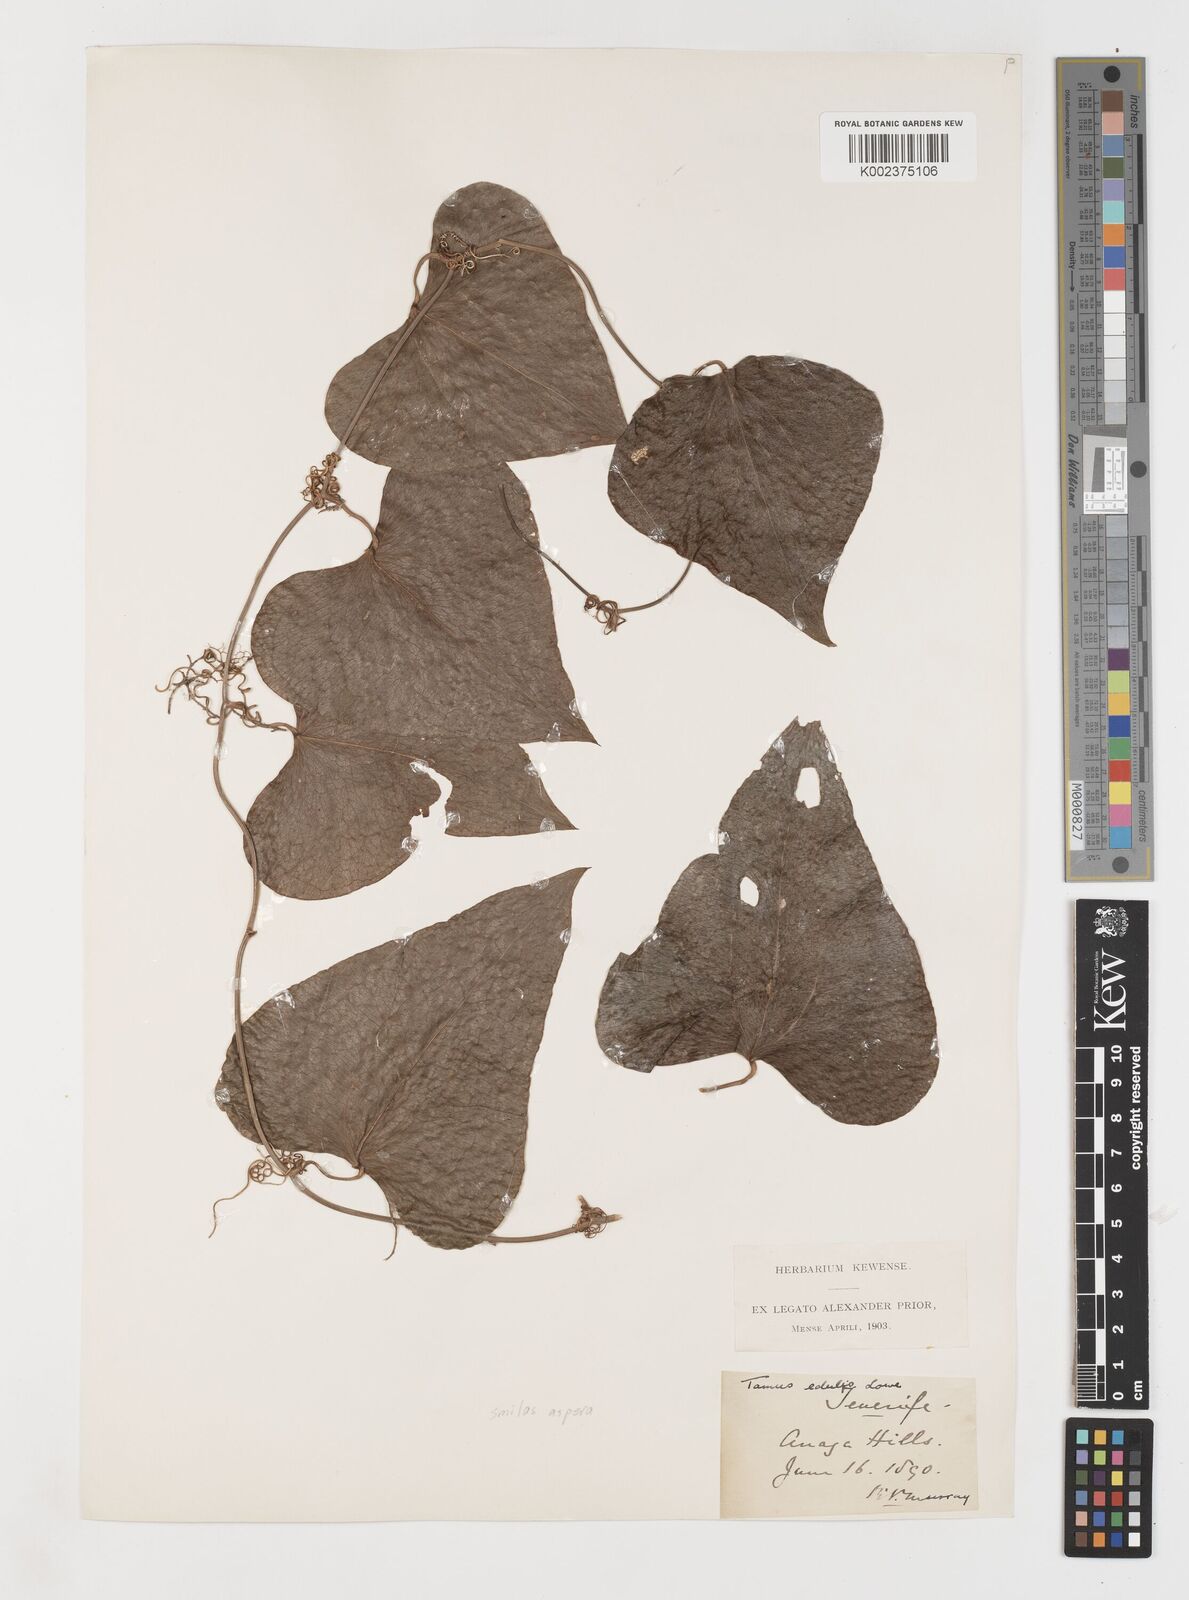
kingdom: Plantae
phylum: Tracheophyta
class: Liliopsida
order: Liliales
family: Smilacaceae
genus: Smilax
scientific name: Smilax aspera
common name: Common smilax
